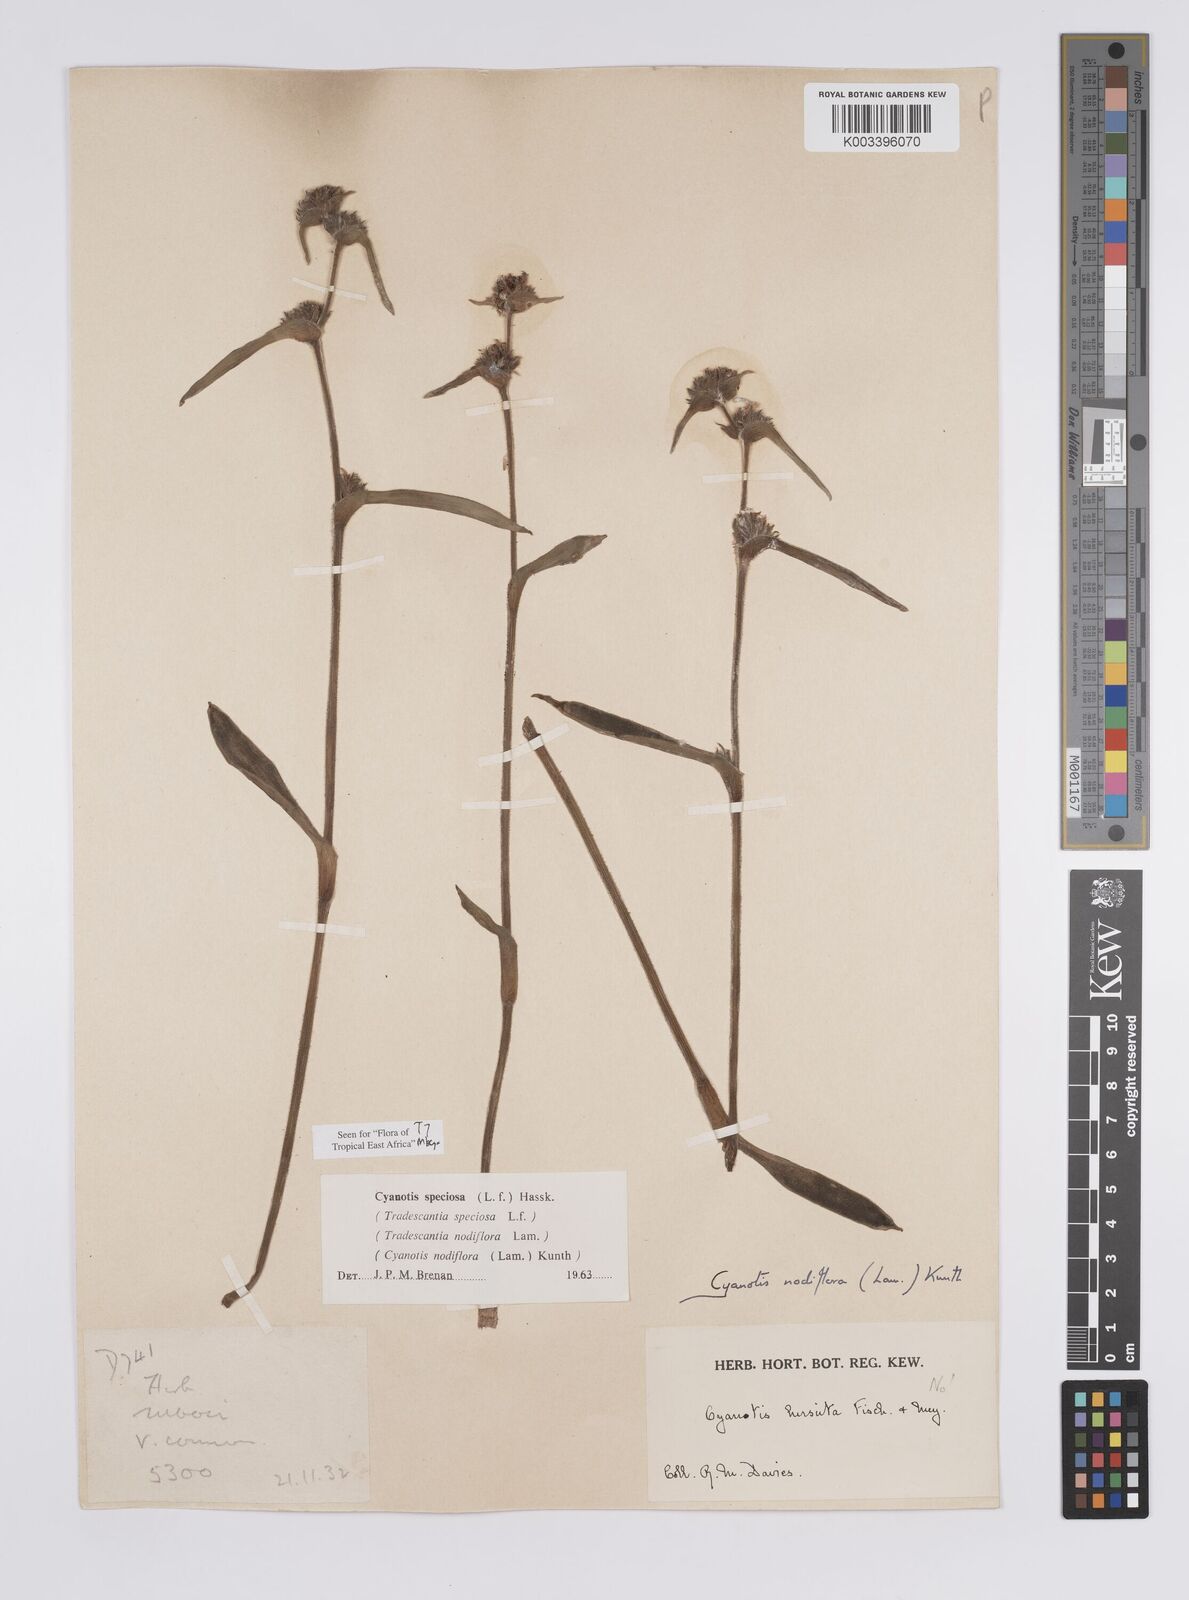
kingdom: Plantae
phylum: Tracheophyta
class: Liliopsida
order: Commelinales
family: Commelinaceae
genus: Cyanotis
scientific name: Cyanotis speciosa
